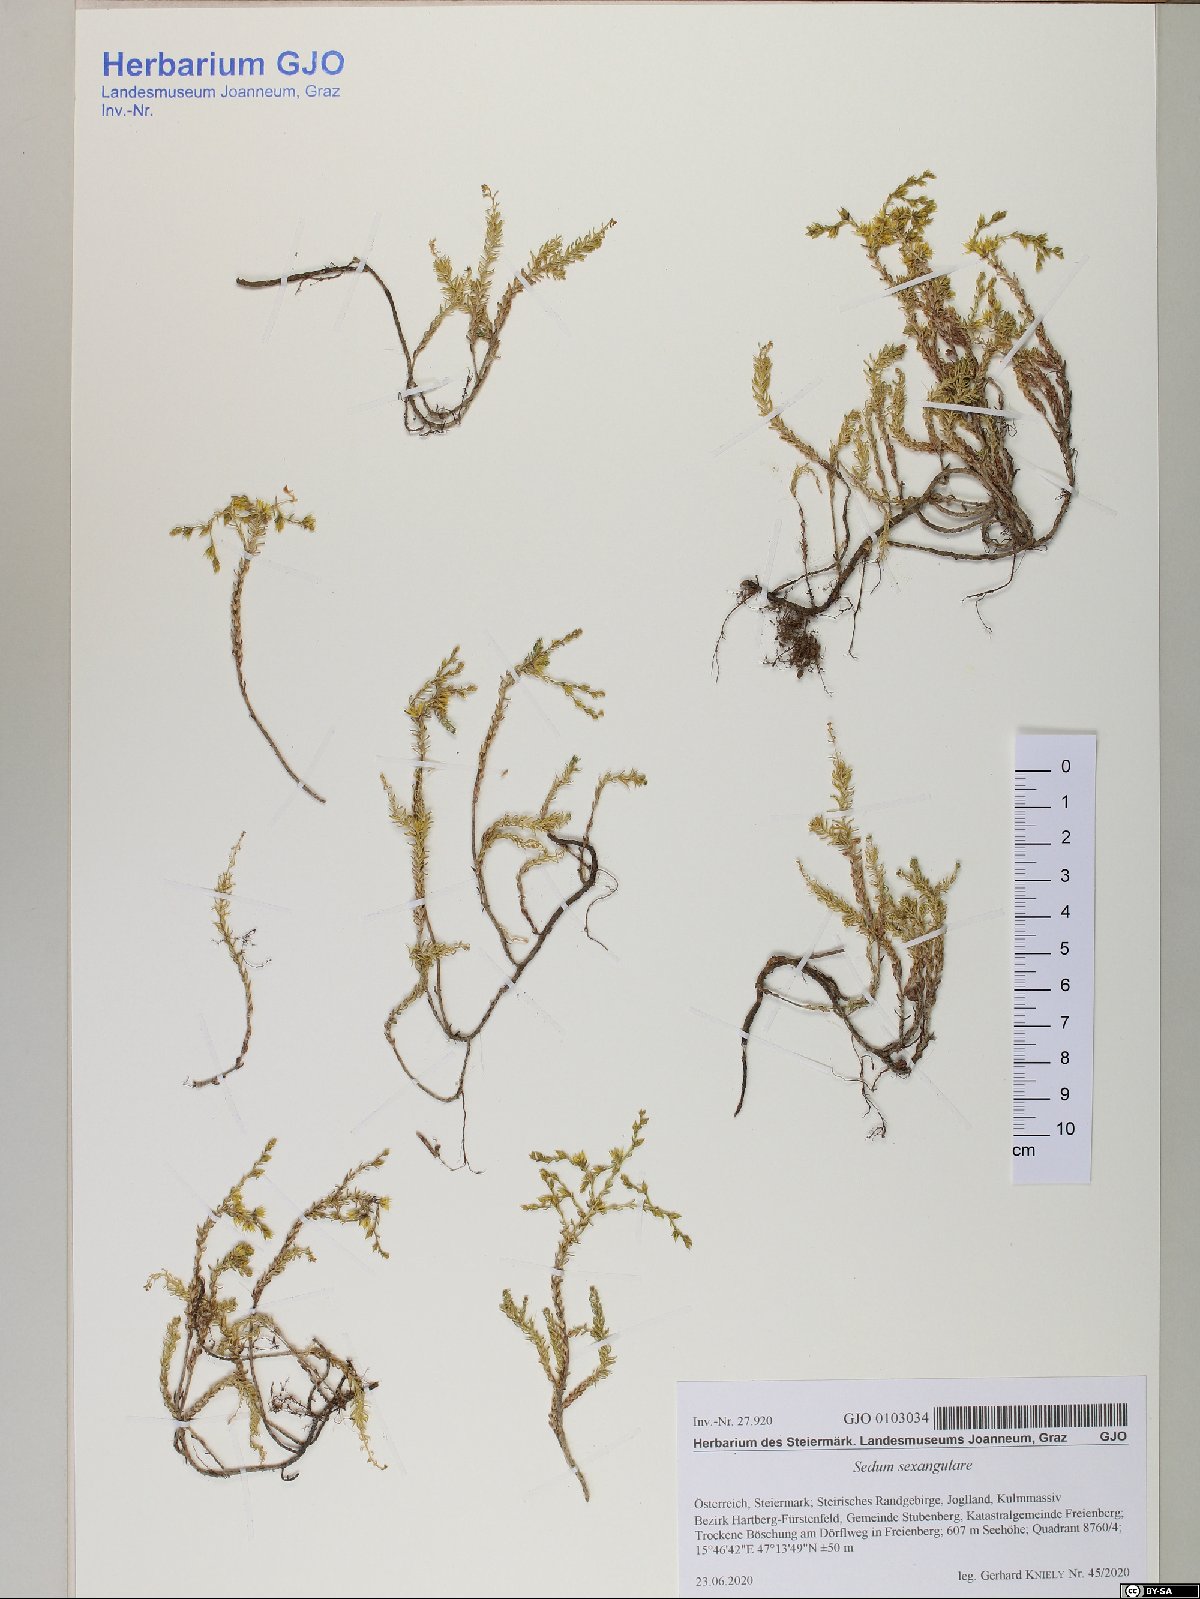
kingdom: Plantae
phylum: Tracheophyta
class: Magnoliopsida
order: Saxifragales
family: Crassulaceae
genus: Sedum
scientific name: Sedum sexangulare
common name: Tasteless stonecrop
